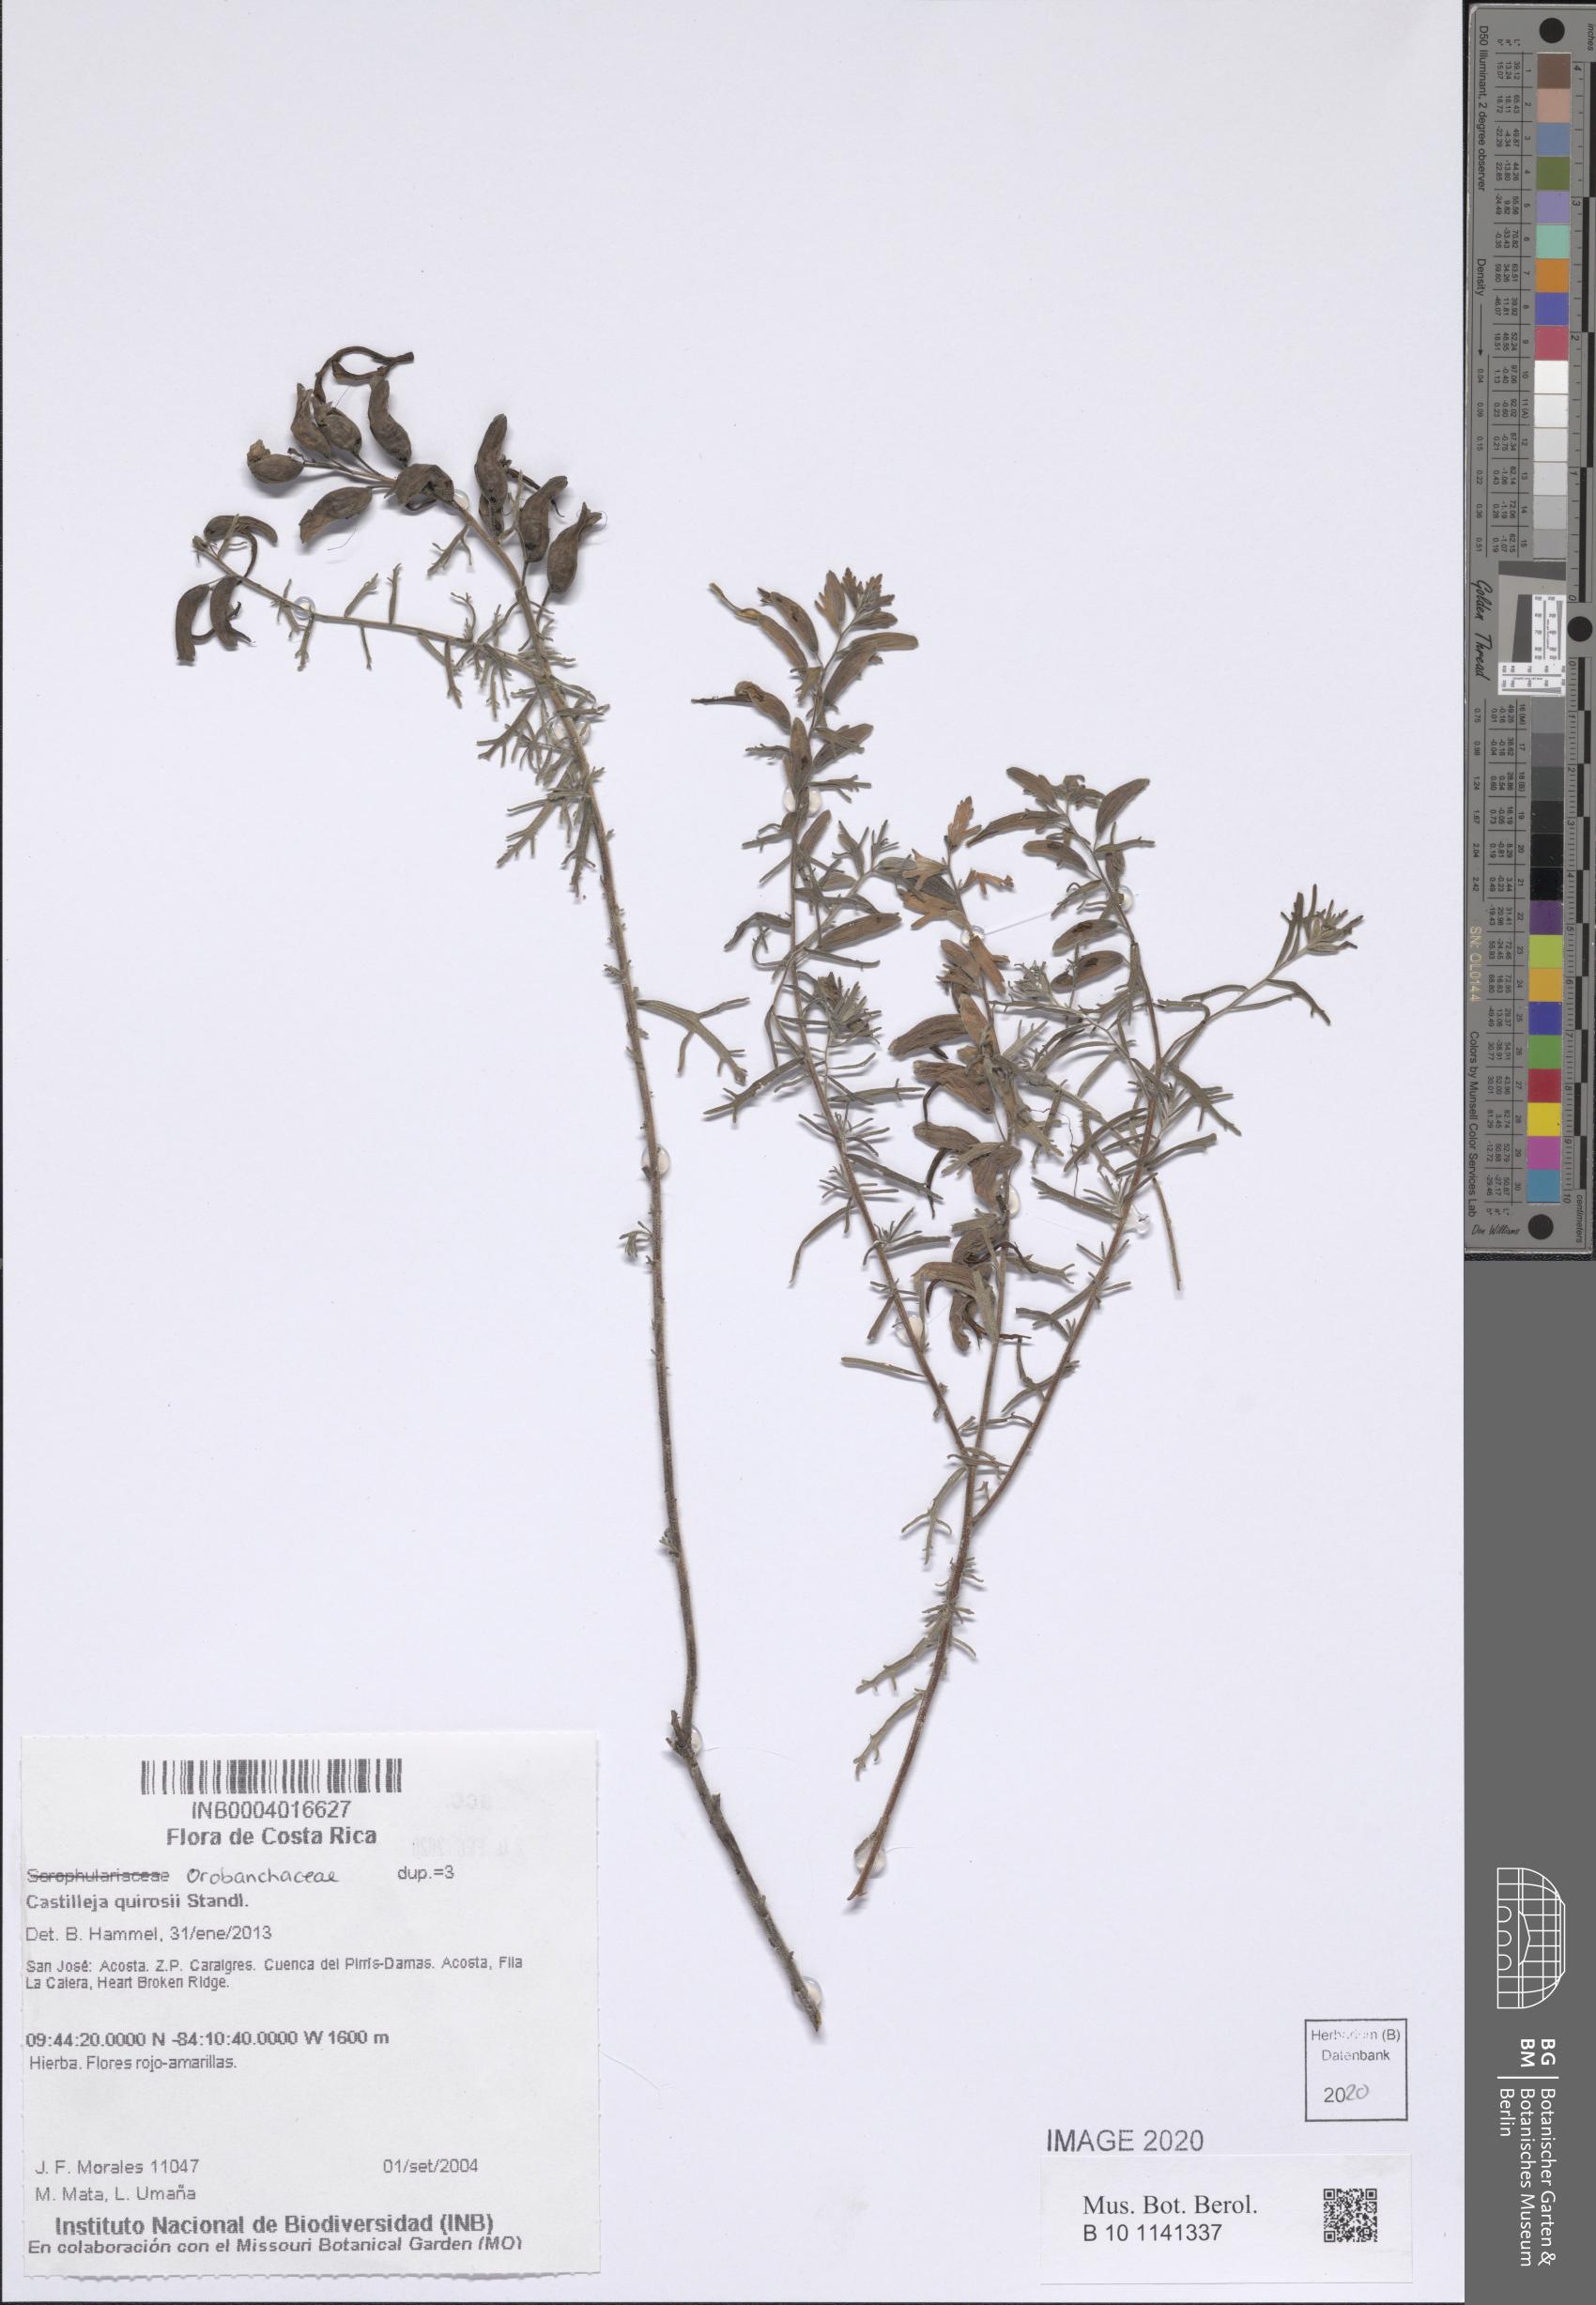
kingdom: Plantae
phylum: Tracheophyta
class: Magnoliopsida
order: Lamiales
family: Orobanchaceae
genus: Castilleja
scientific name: Castilleja quirosii
